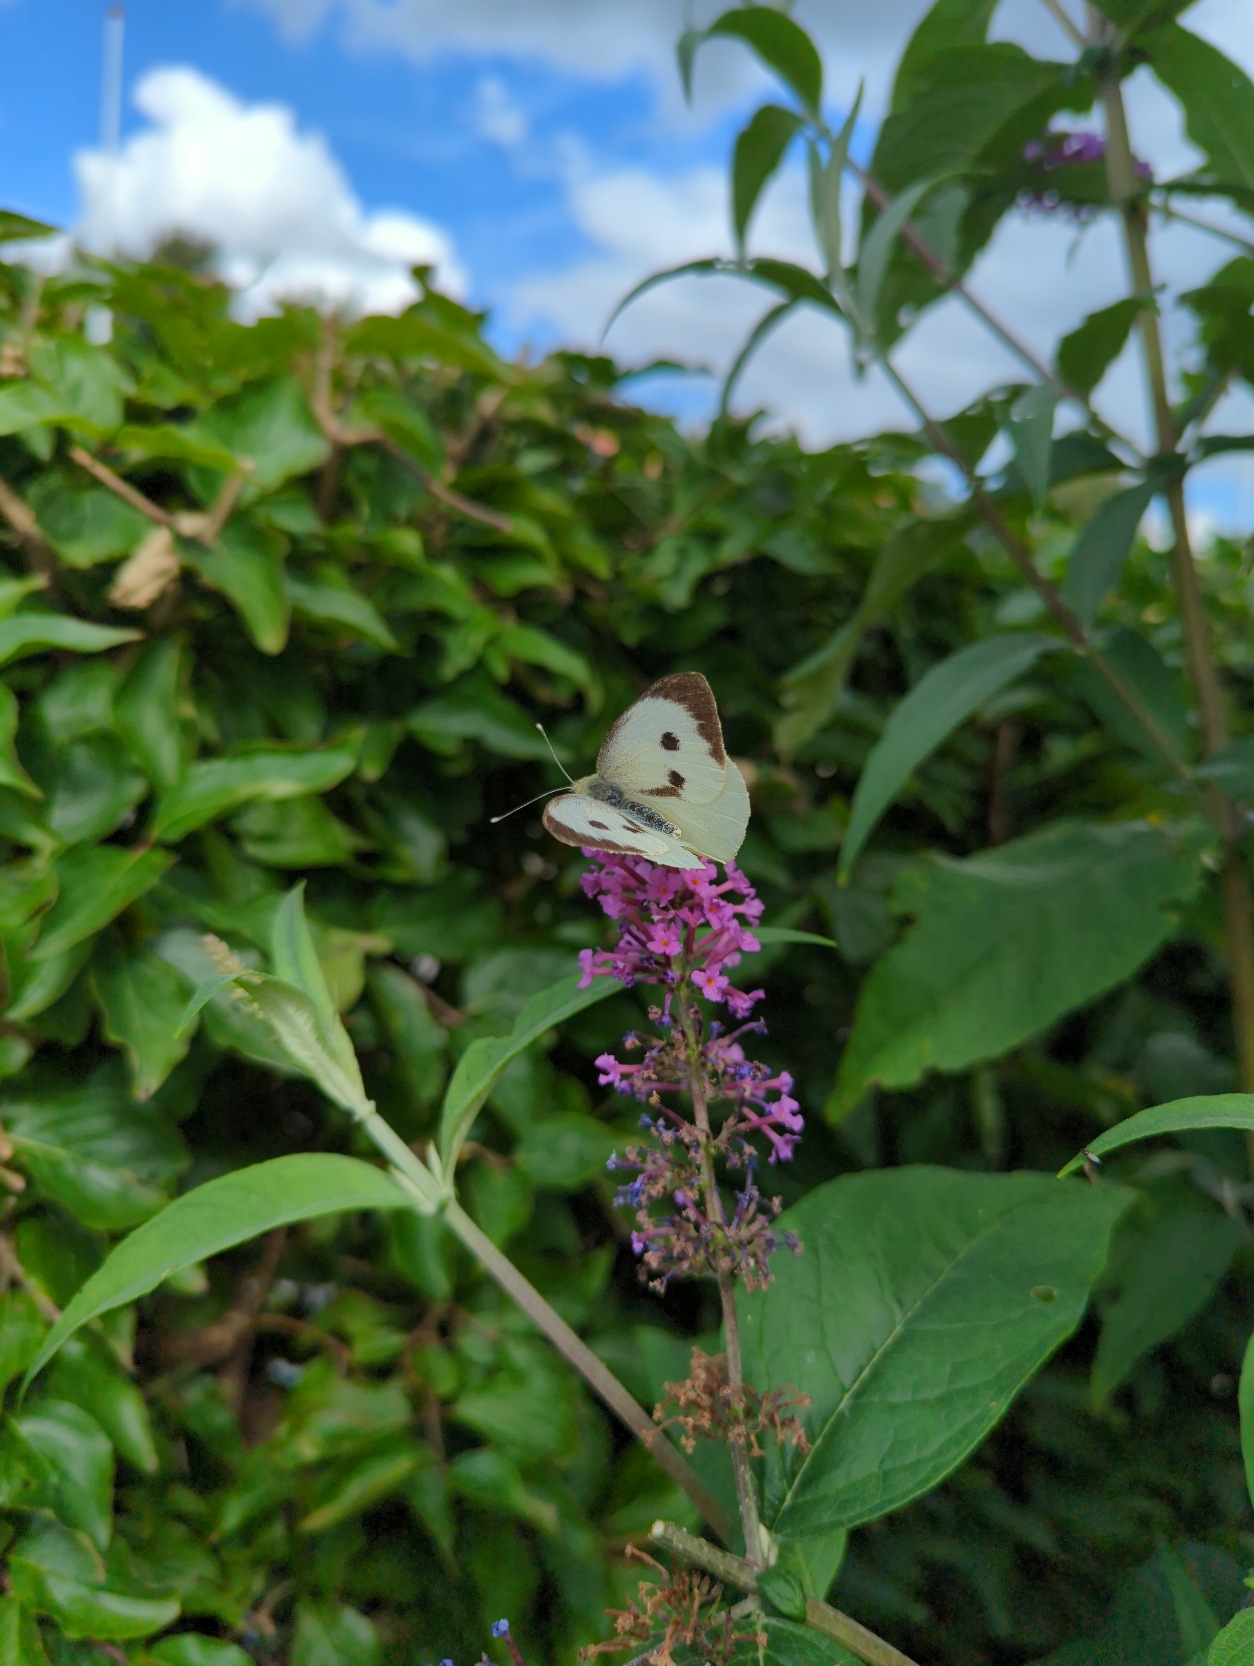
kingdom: Animalia
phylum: Arthropoda
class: Insecta
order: Lepidoptera
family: Pieridae
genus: Pieris
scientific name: Pieris brassicae
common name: Stor kålsommerfugl
